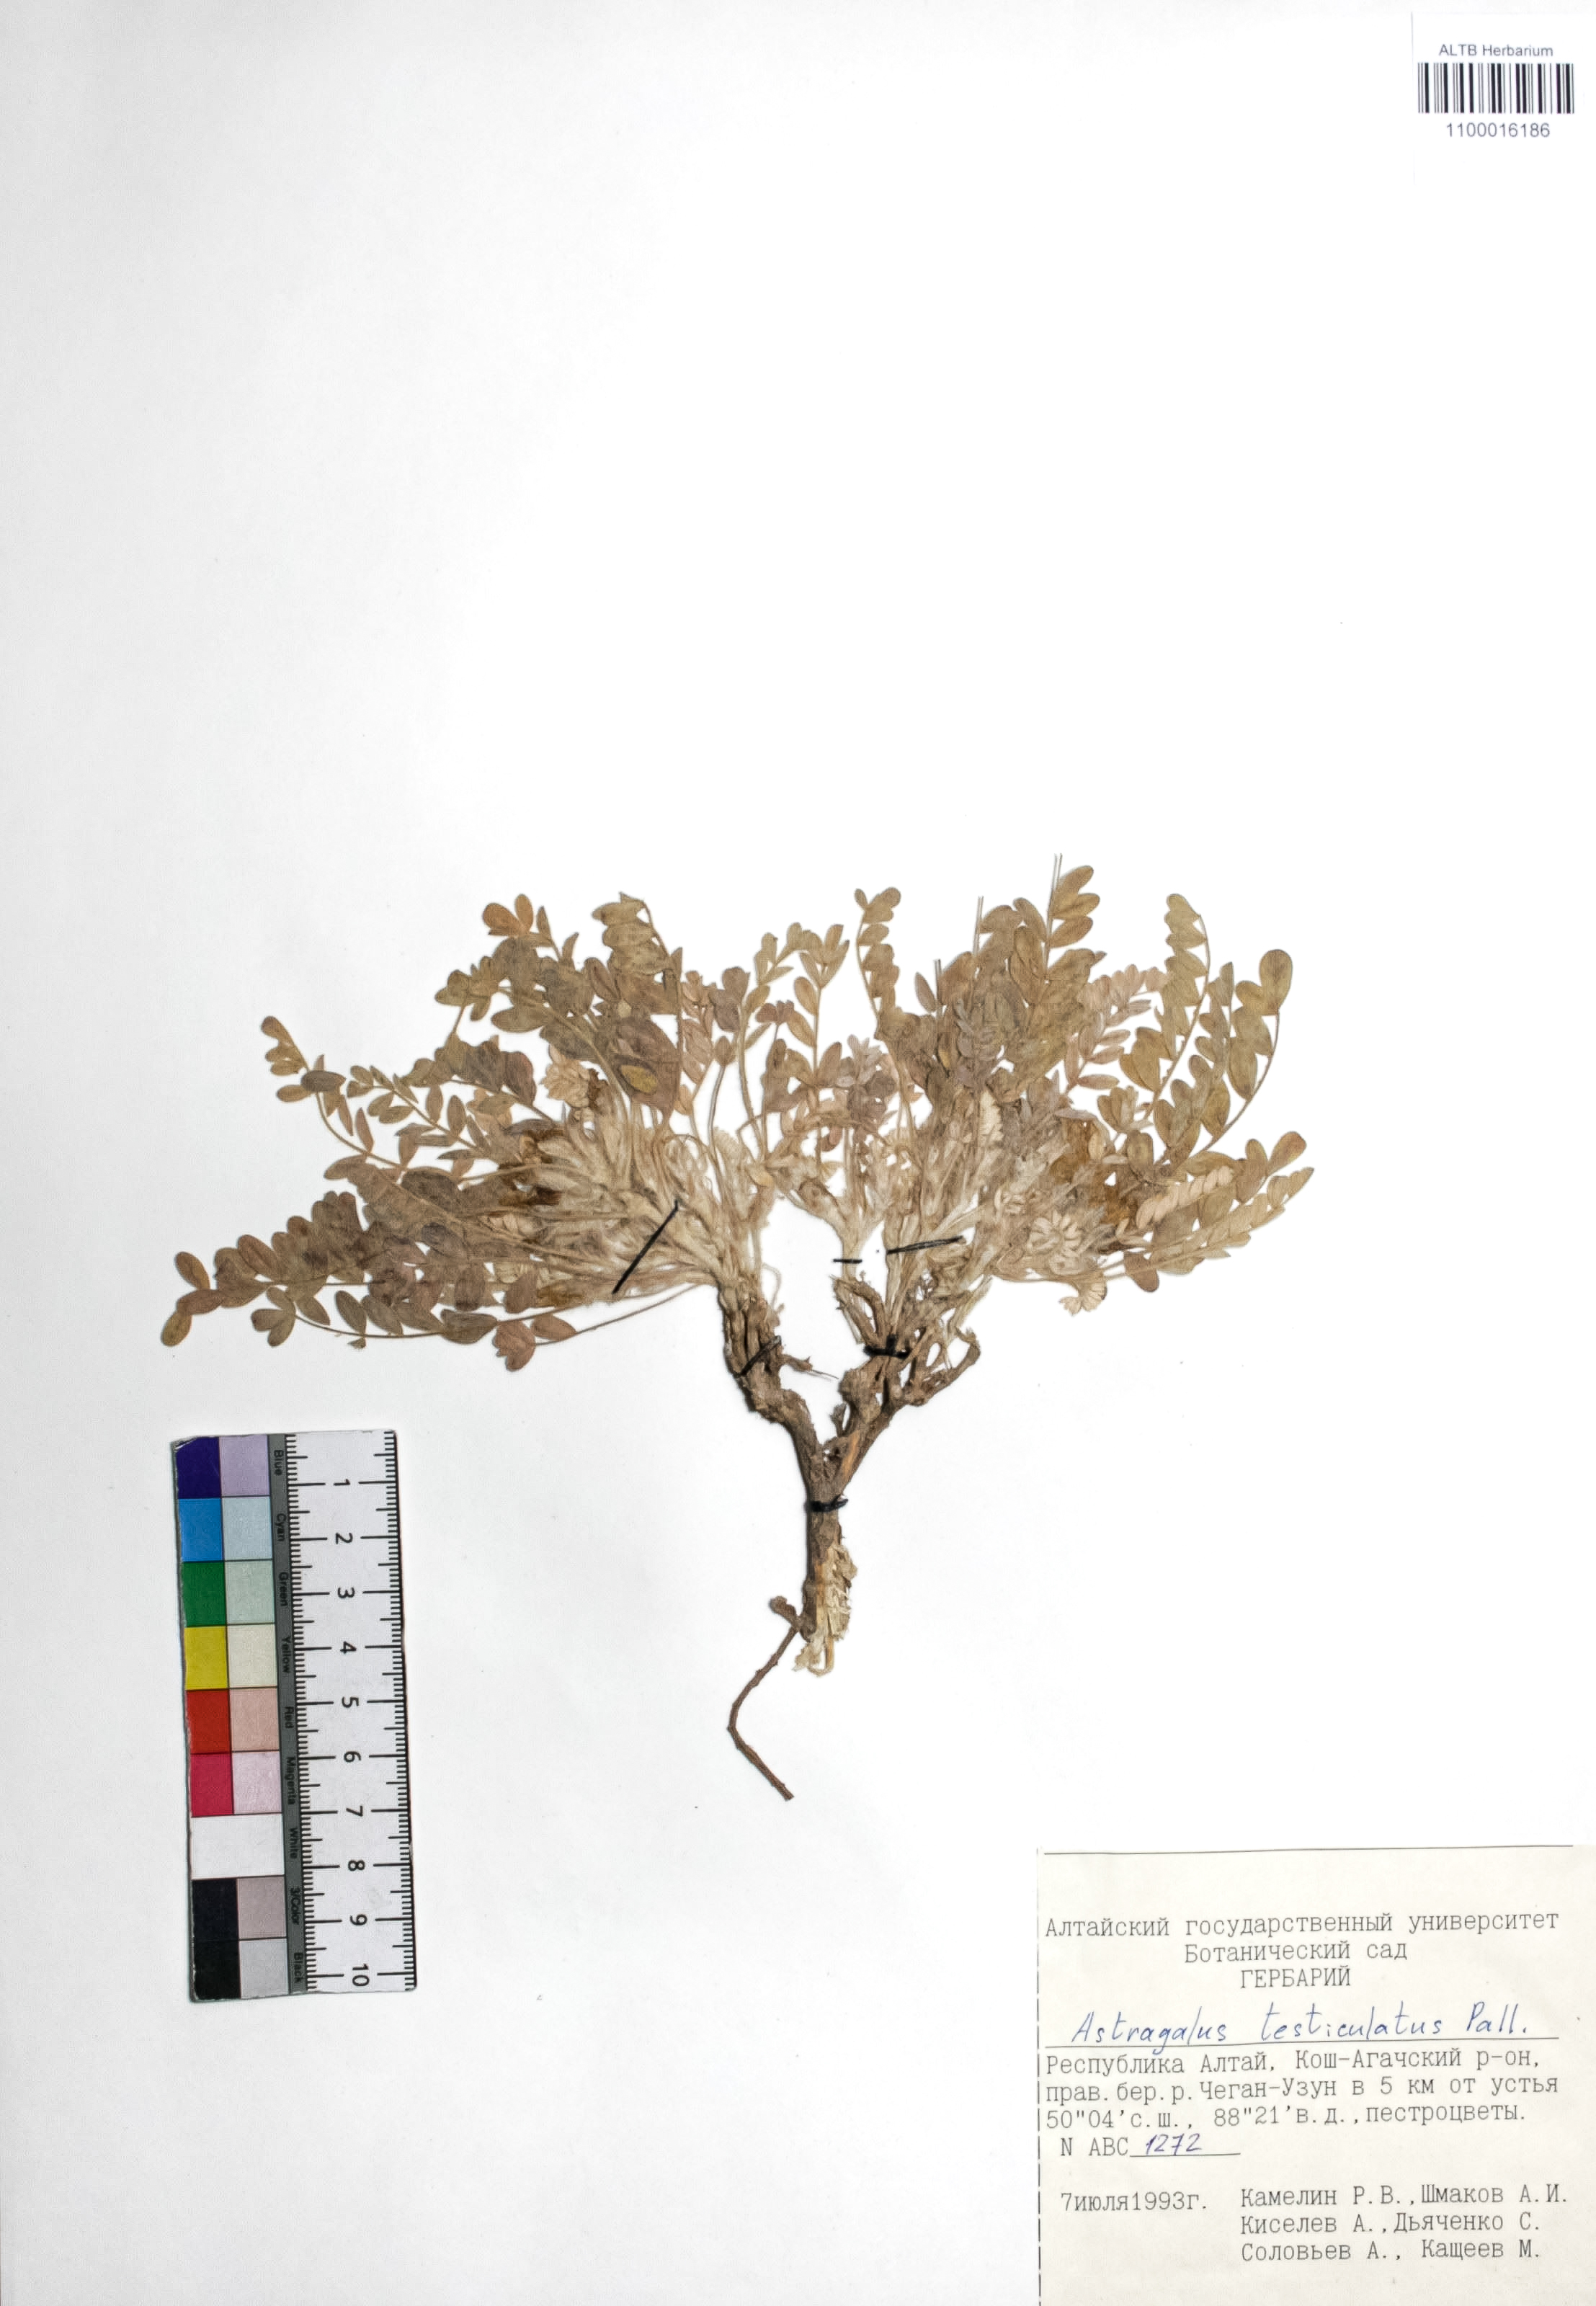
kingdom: Plantae
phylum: Tracheophyta
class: Magnoliopsida
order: Fabales
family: Fabaceae
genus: Astragalus
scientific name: Astragalus testiculatus
